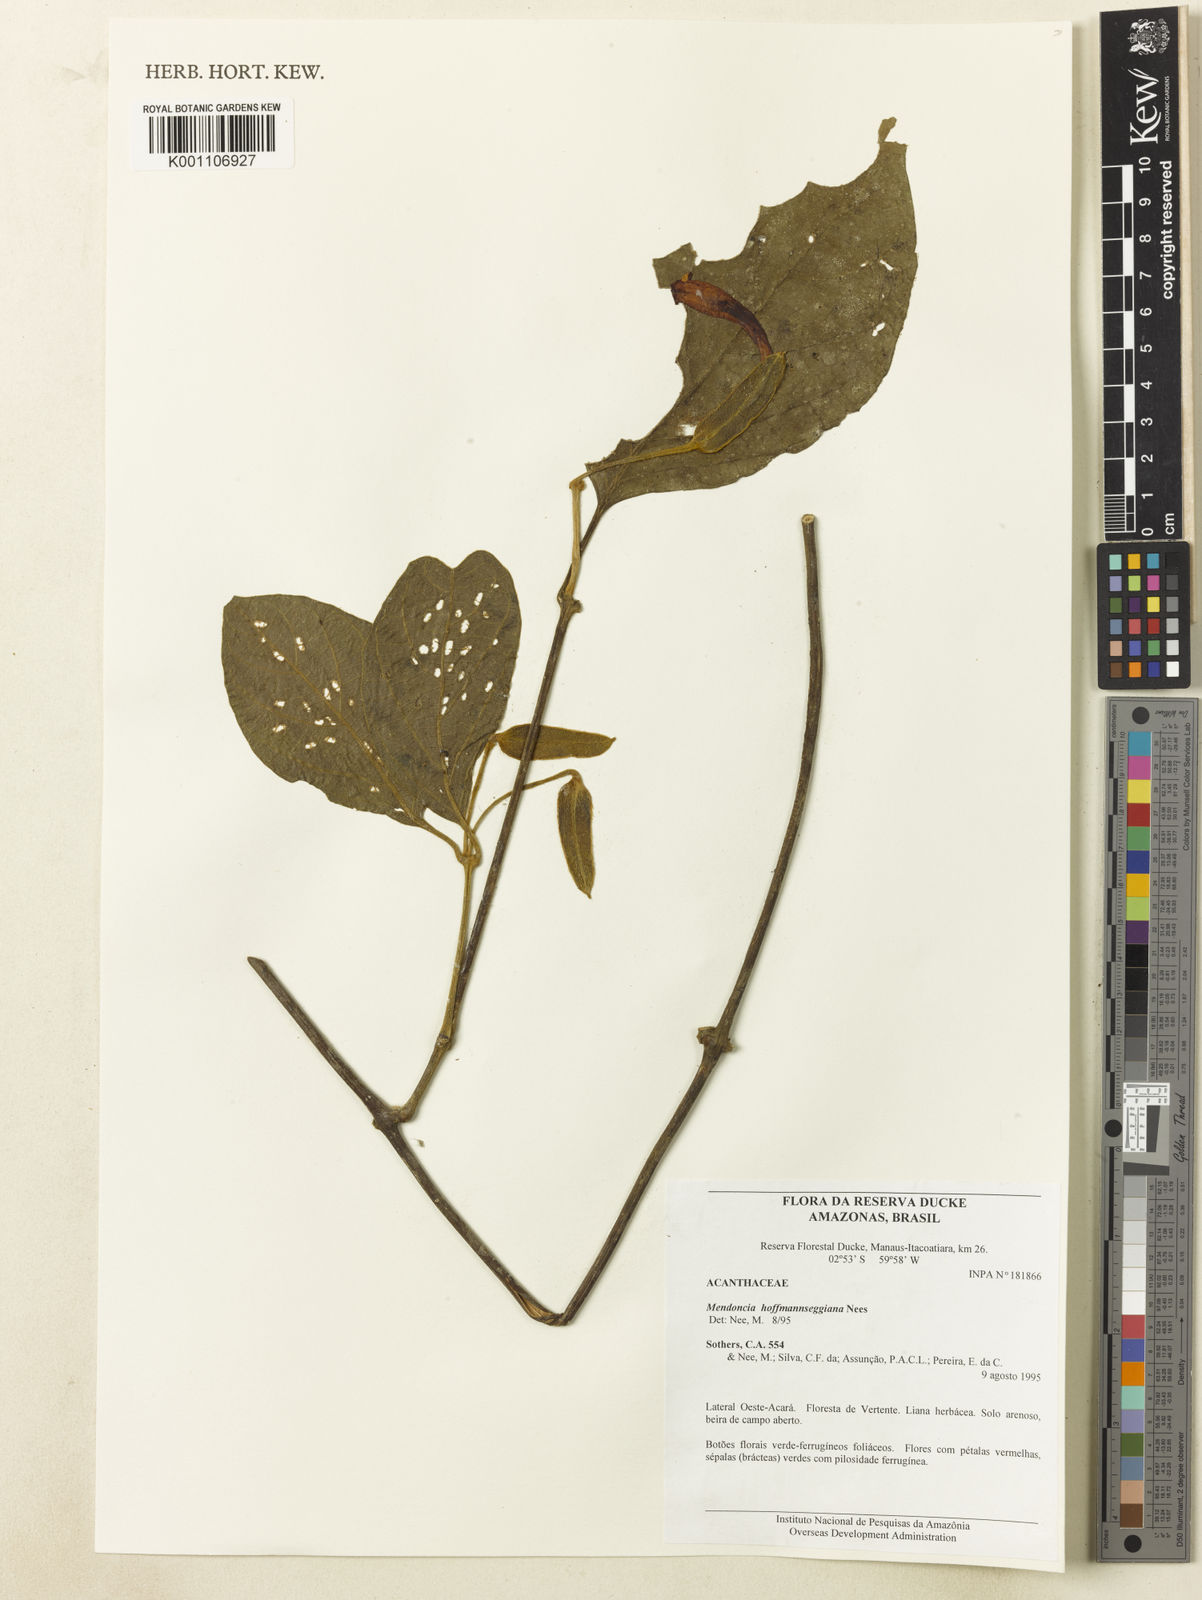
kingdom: Plantae
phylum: Tracheophyta
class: Magnoliopsida
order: Lamiales
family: Acanthaceae
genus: Mendoncia
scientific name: Mendoncia hoffmannseggiana
